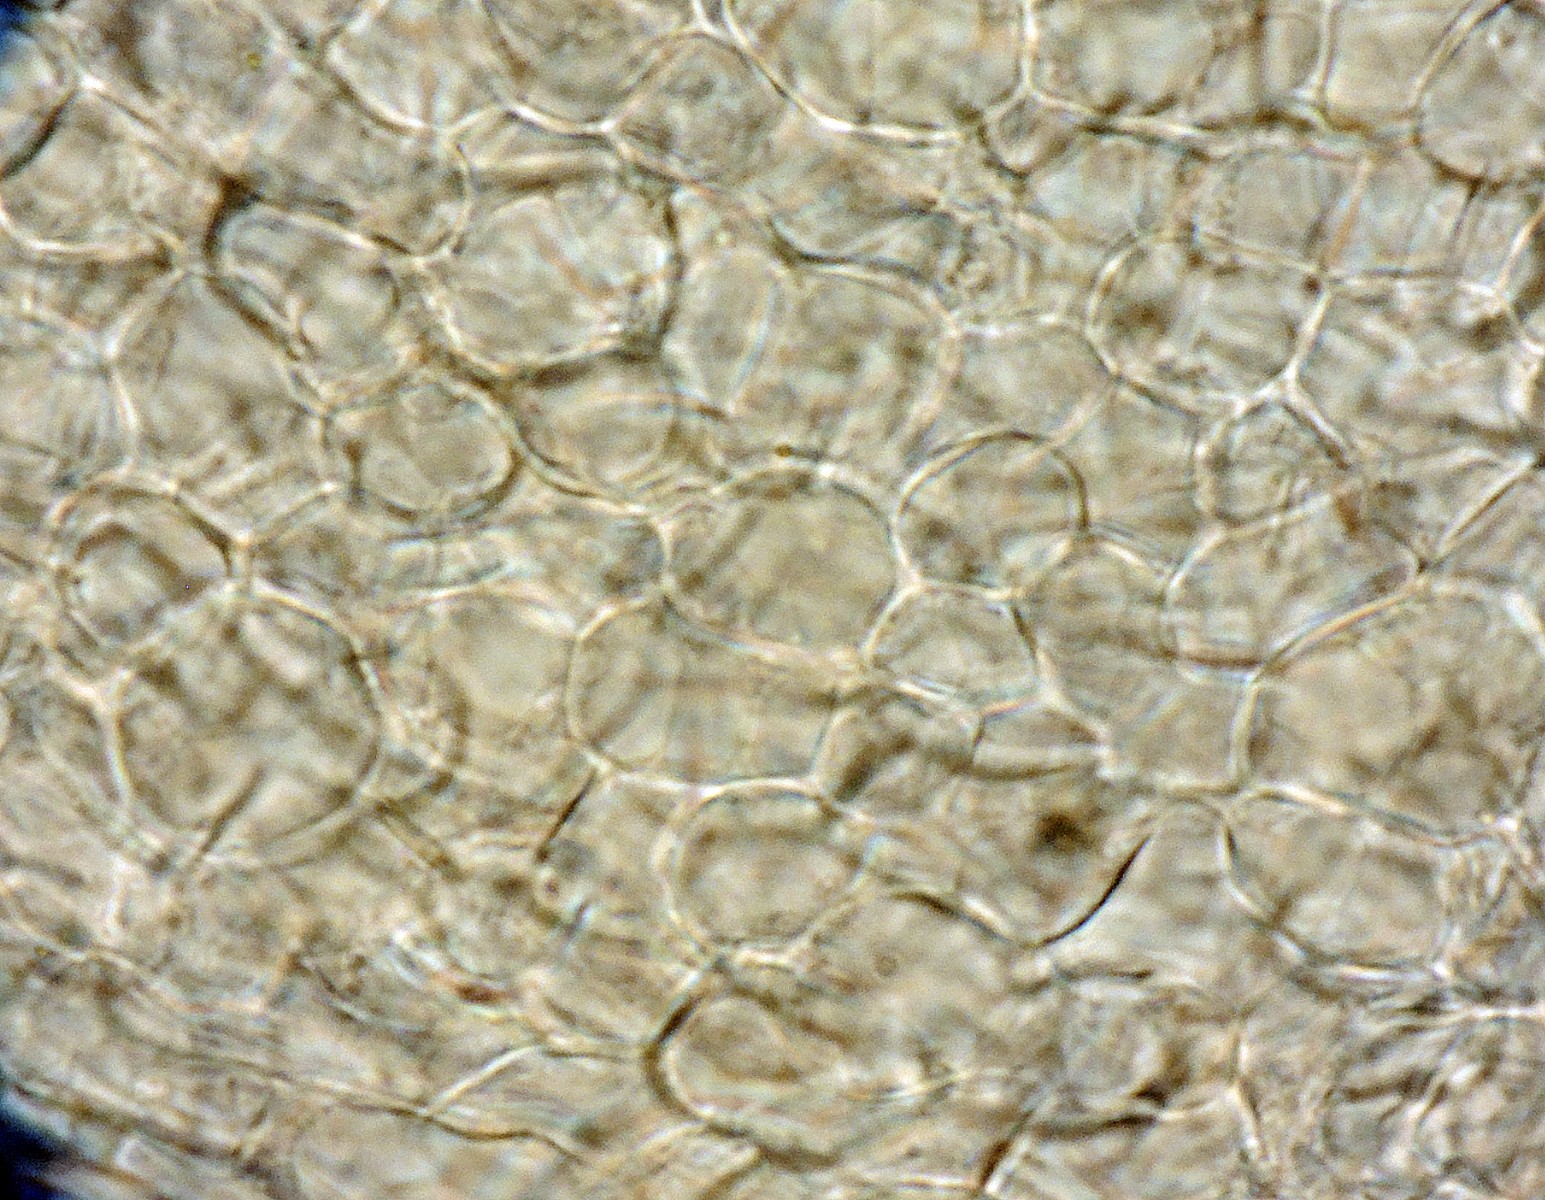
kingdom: Fungi
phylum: Ascomycota
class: Leotiomycetes
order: Helotiales
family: Hyaloscyphaceae
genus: Cistella
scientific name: Cistella grevillei
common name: lædergul sirskive
